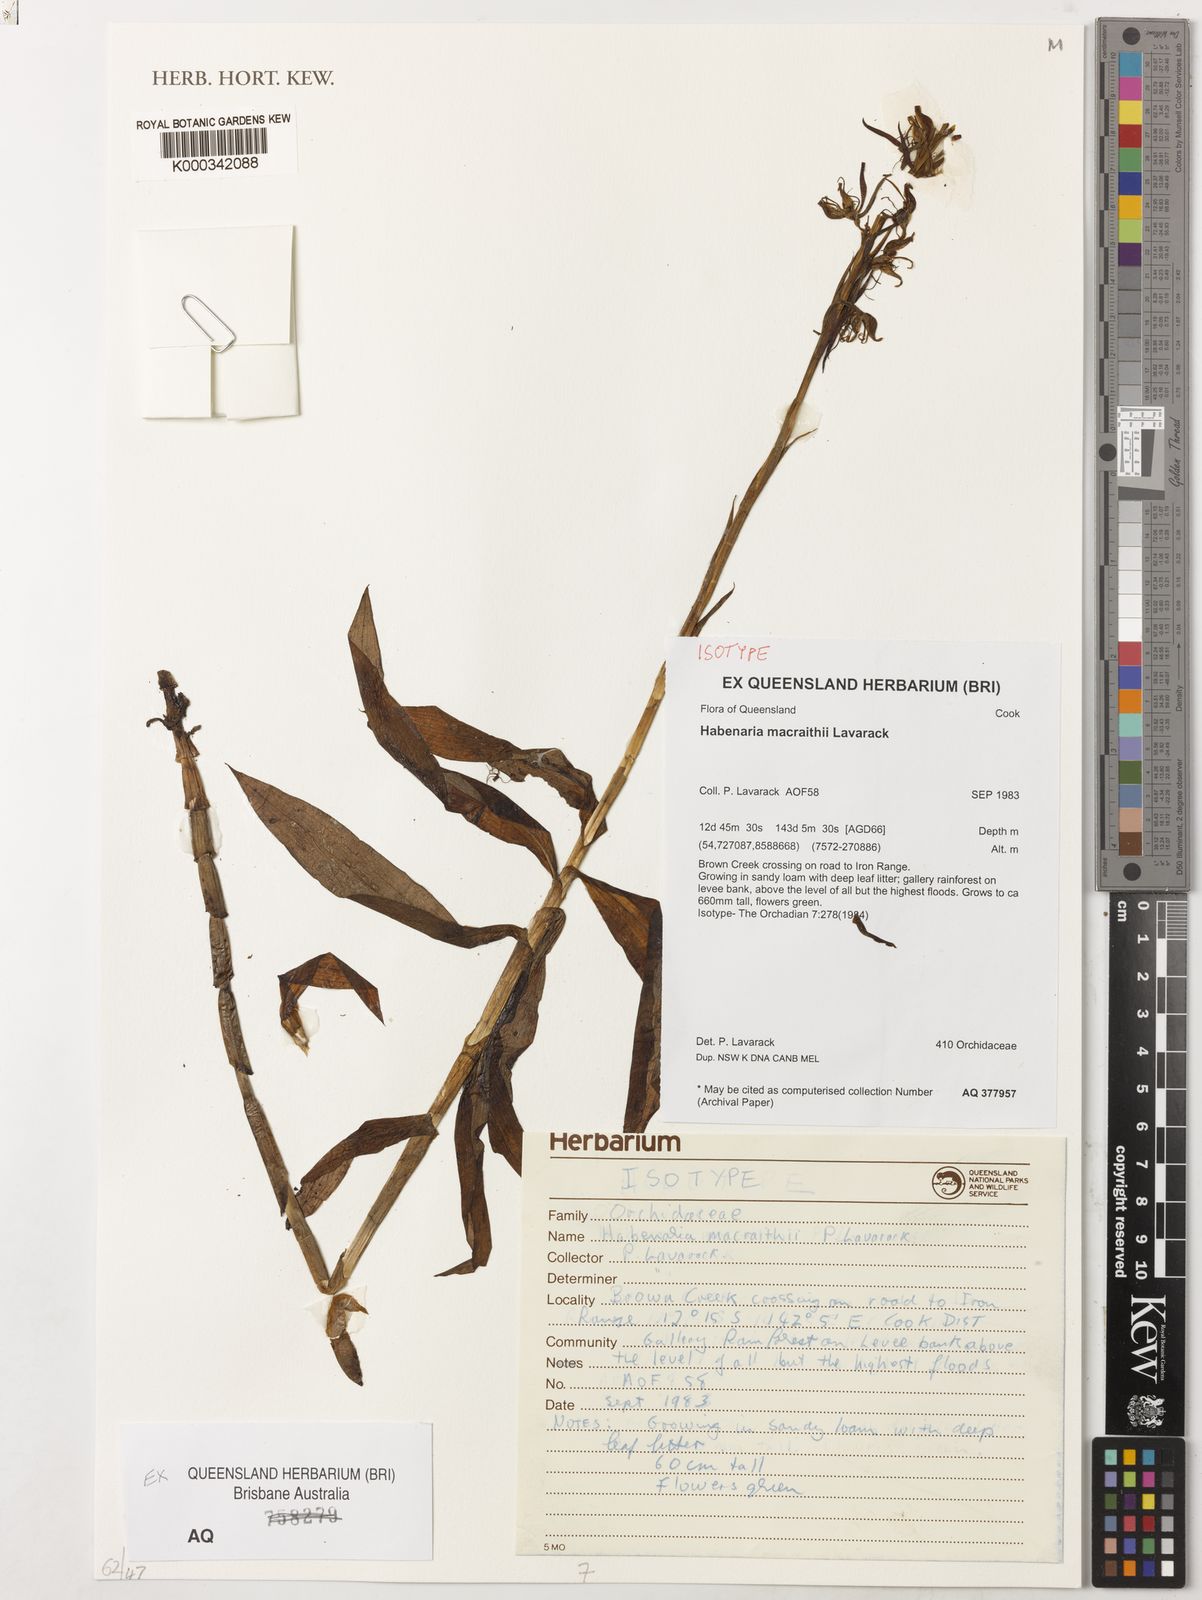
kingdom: Plantae
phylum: Tracheophyta
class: Liliopsida
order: Asparagales
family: Orchidaceae
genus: Habenaria
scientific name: Habenaria macraithii
